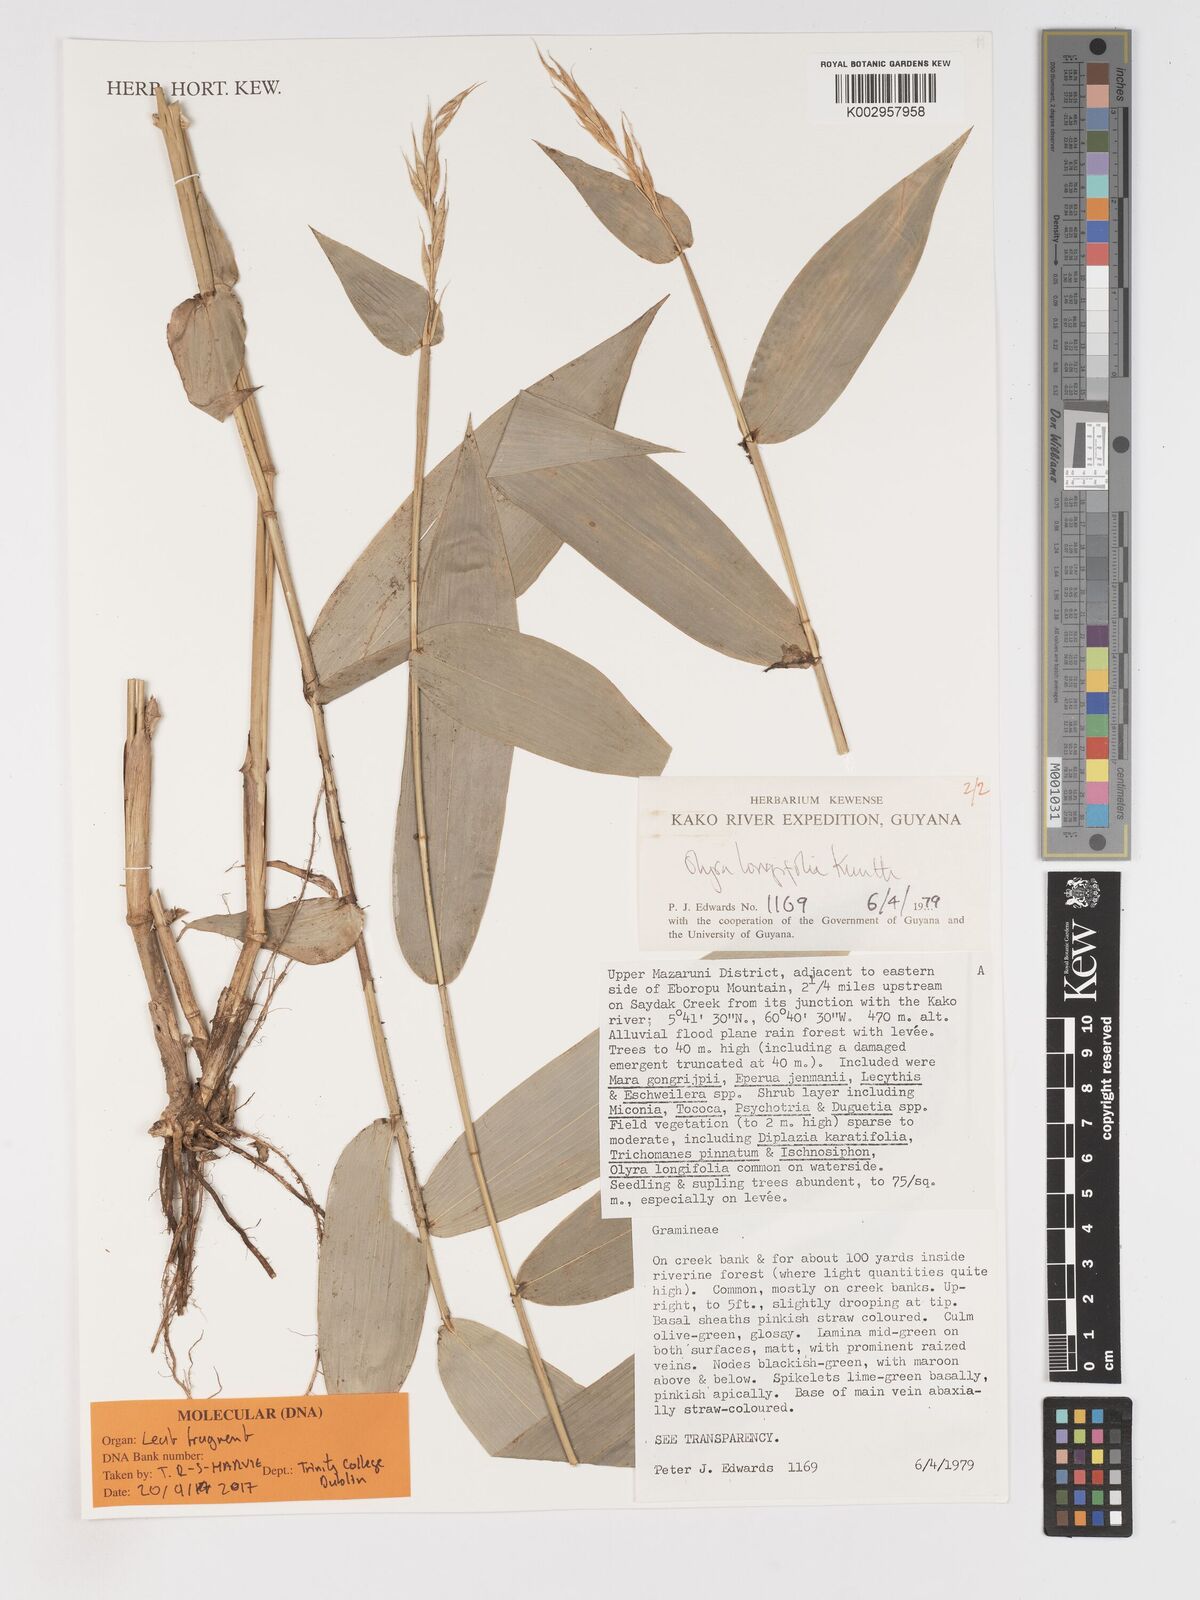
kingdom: Plantae
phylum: Tracheophyta
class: Liliopsida
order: Poales
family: Poaceae
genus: Olyra
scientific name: Olyra longifolia
